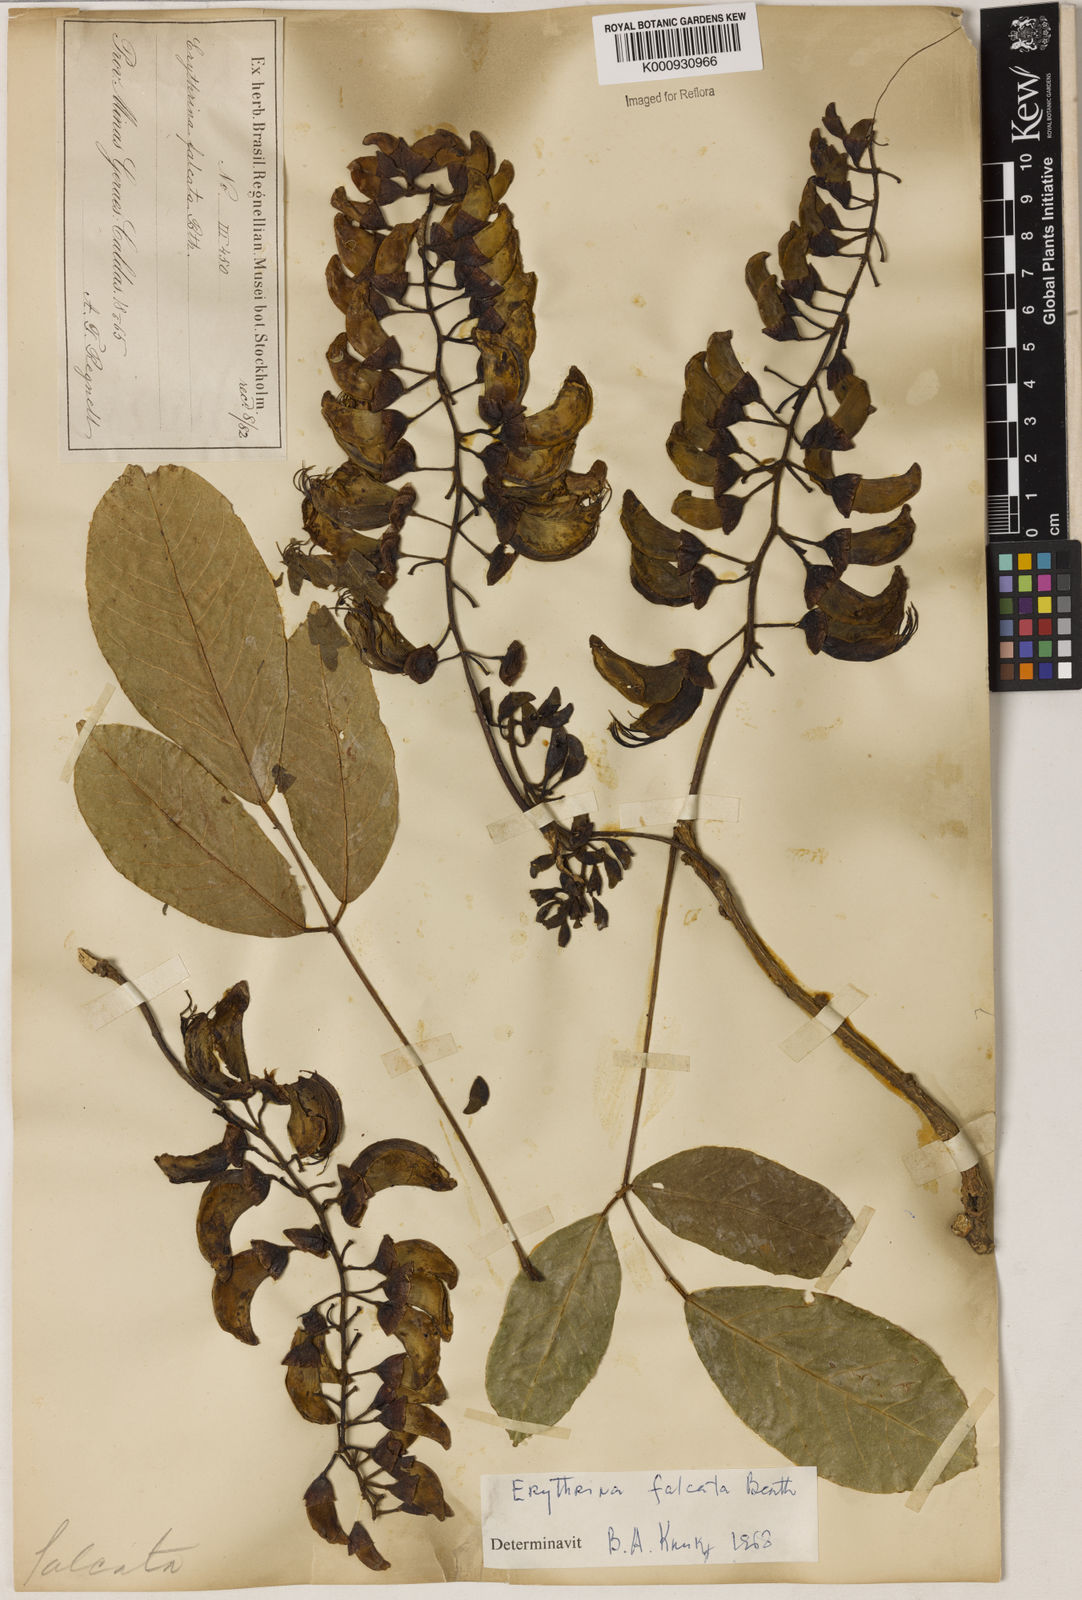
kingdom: Plantae
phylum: Tracheophyta
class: Magnoliopsida
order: Fabales
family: Fabaceae
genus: Erythrina
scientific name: Erythrina falcata
